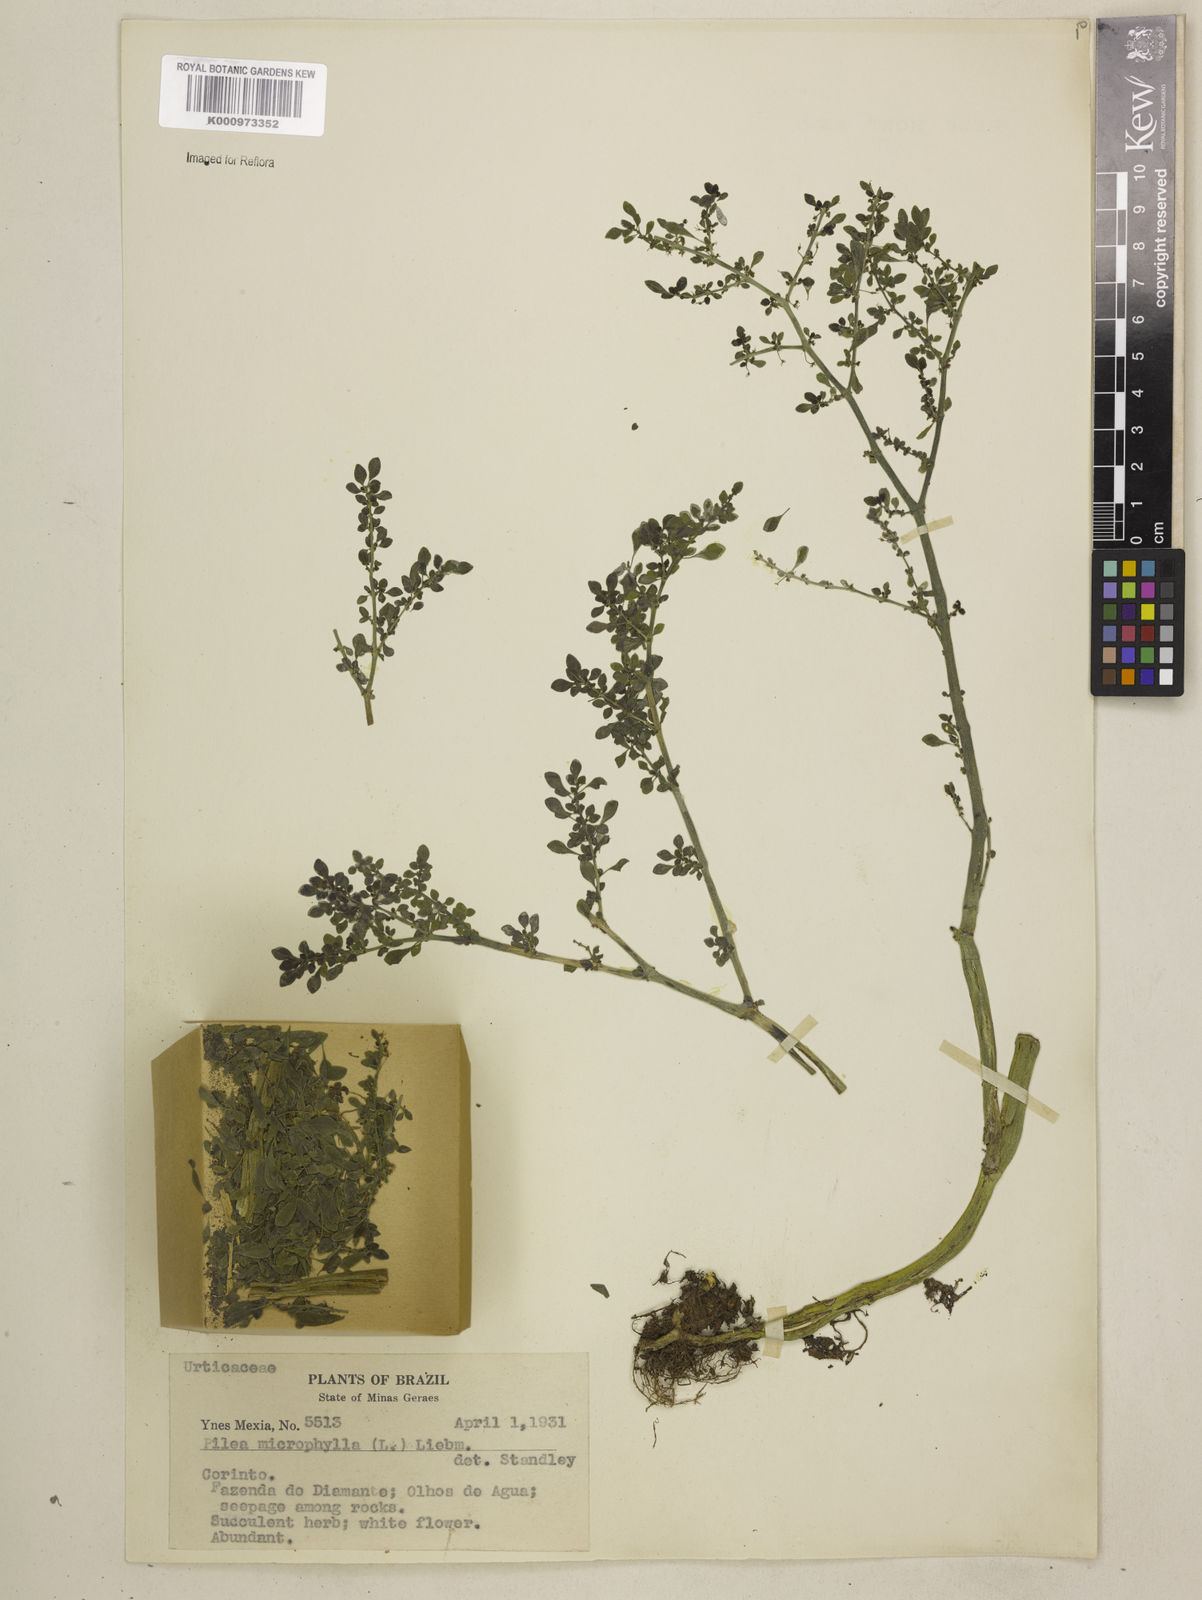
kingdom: Plantae
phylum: Tracheophyta
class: Magnoliopsida
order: Rosales
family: Urticaceae
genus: Pilea
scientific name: Pilea microphylla
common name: Artillery-plant
